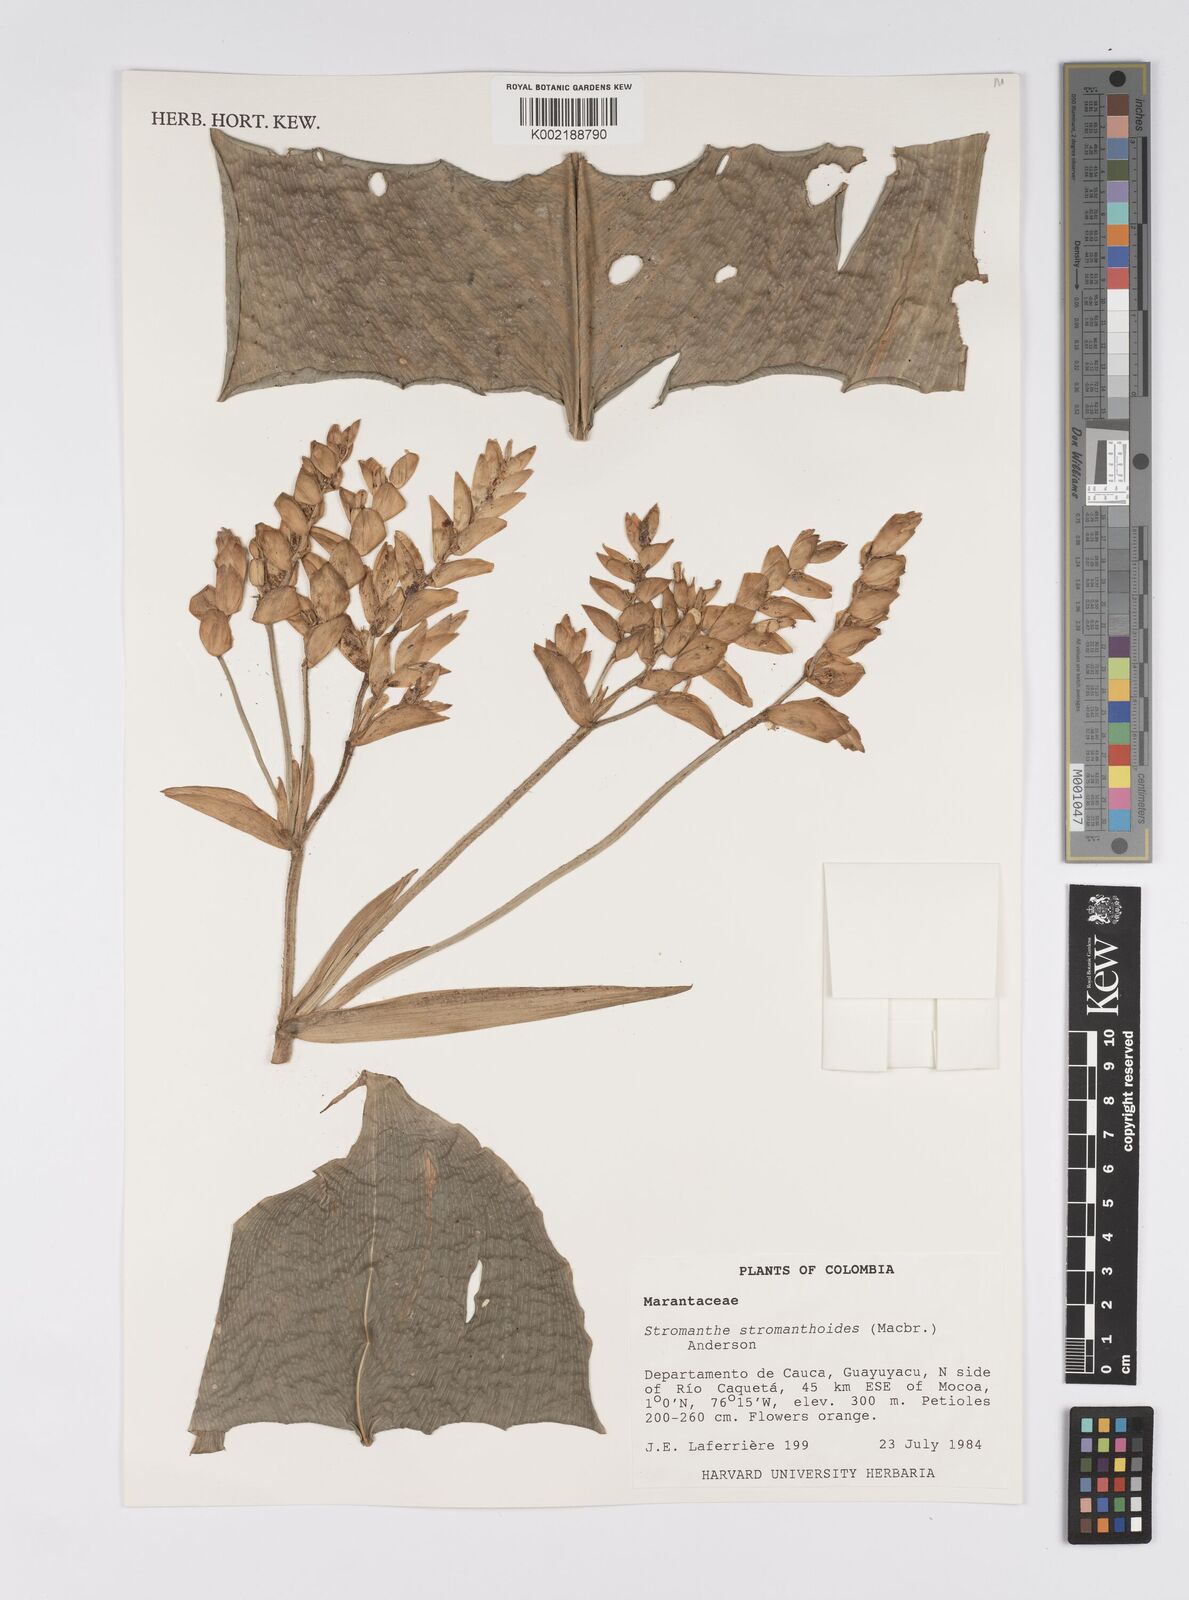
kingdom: Plantae
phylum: Tracheophyta
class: Liliopsida
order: Zingiberales
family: Marantaceae
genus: Stromanthe
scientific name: Stromanthe stromanthoides
